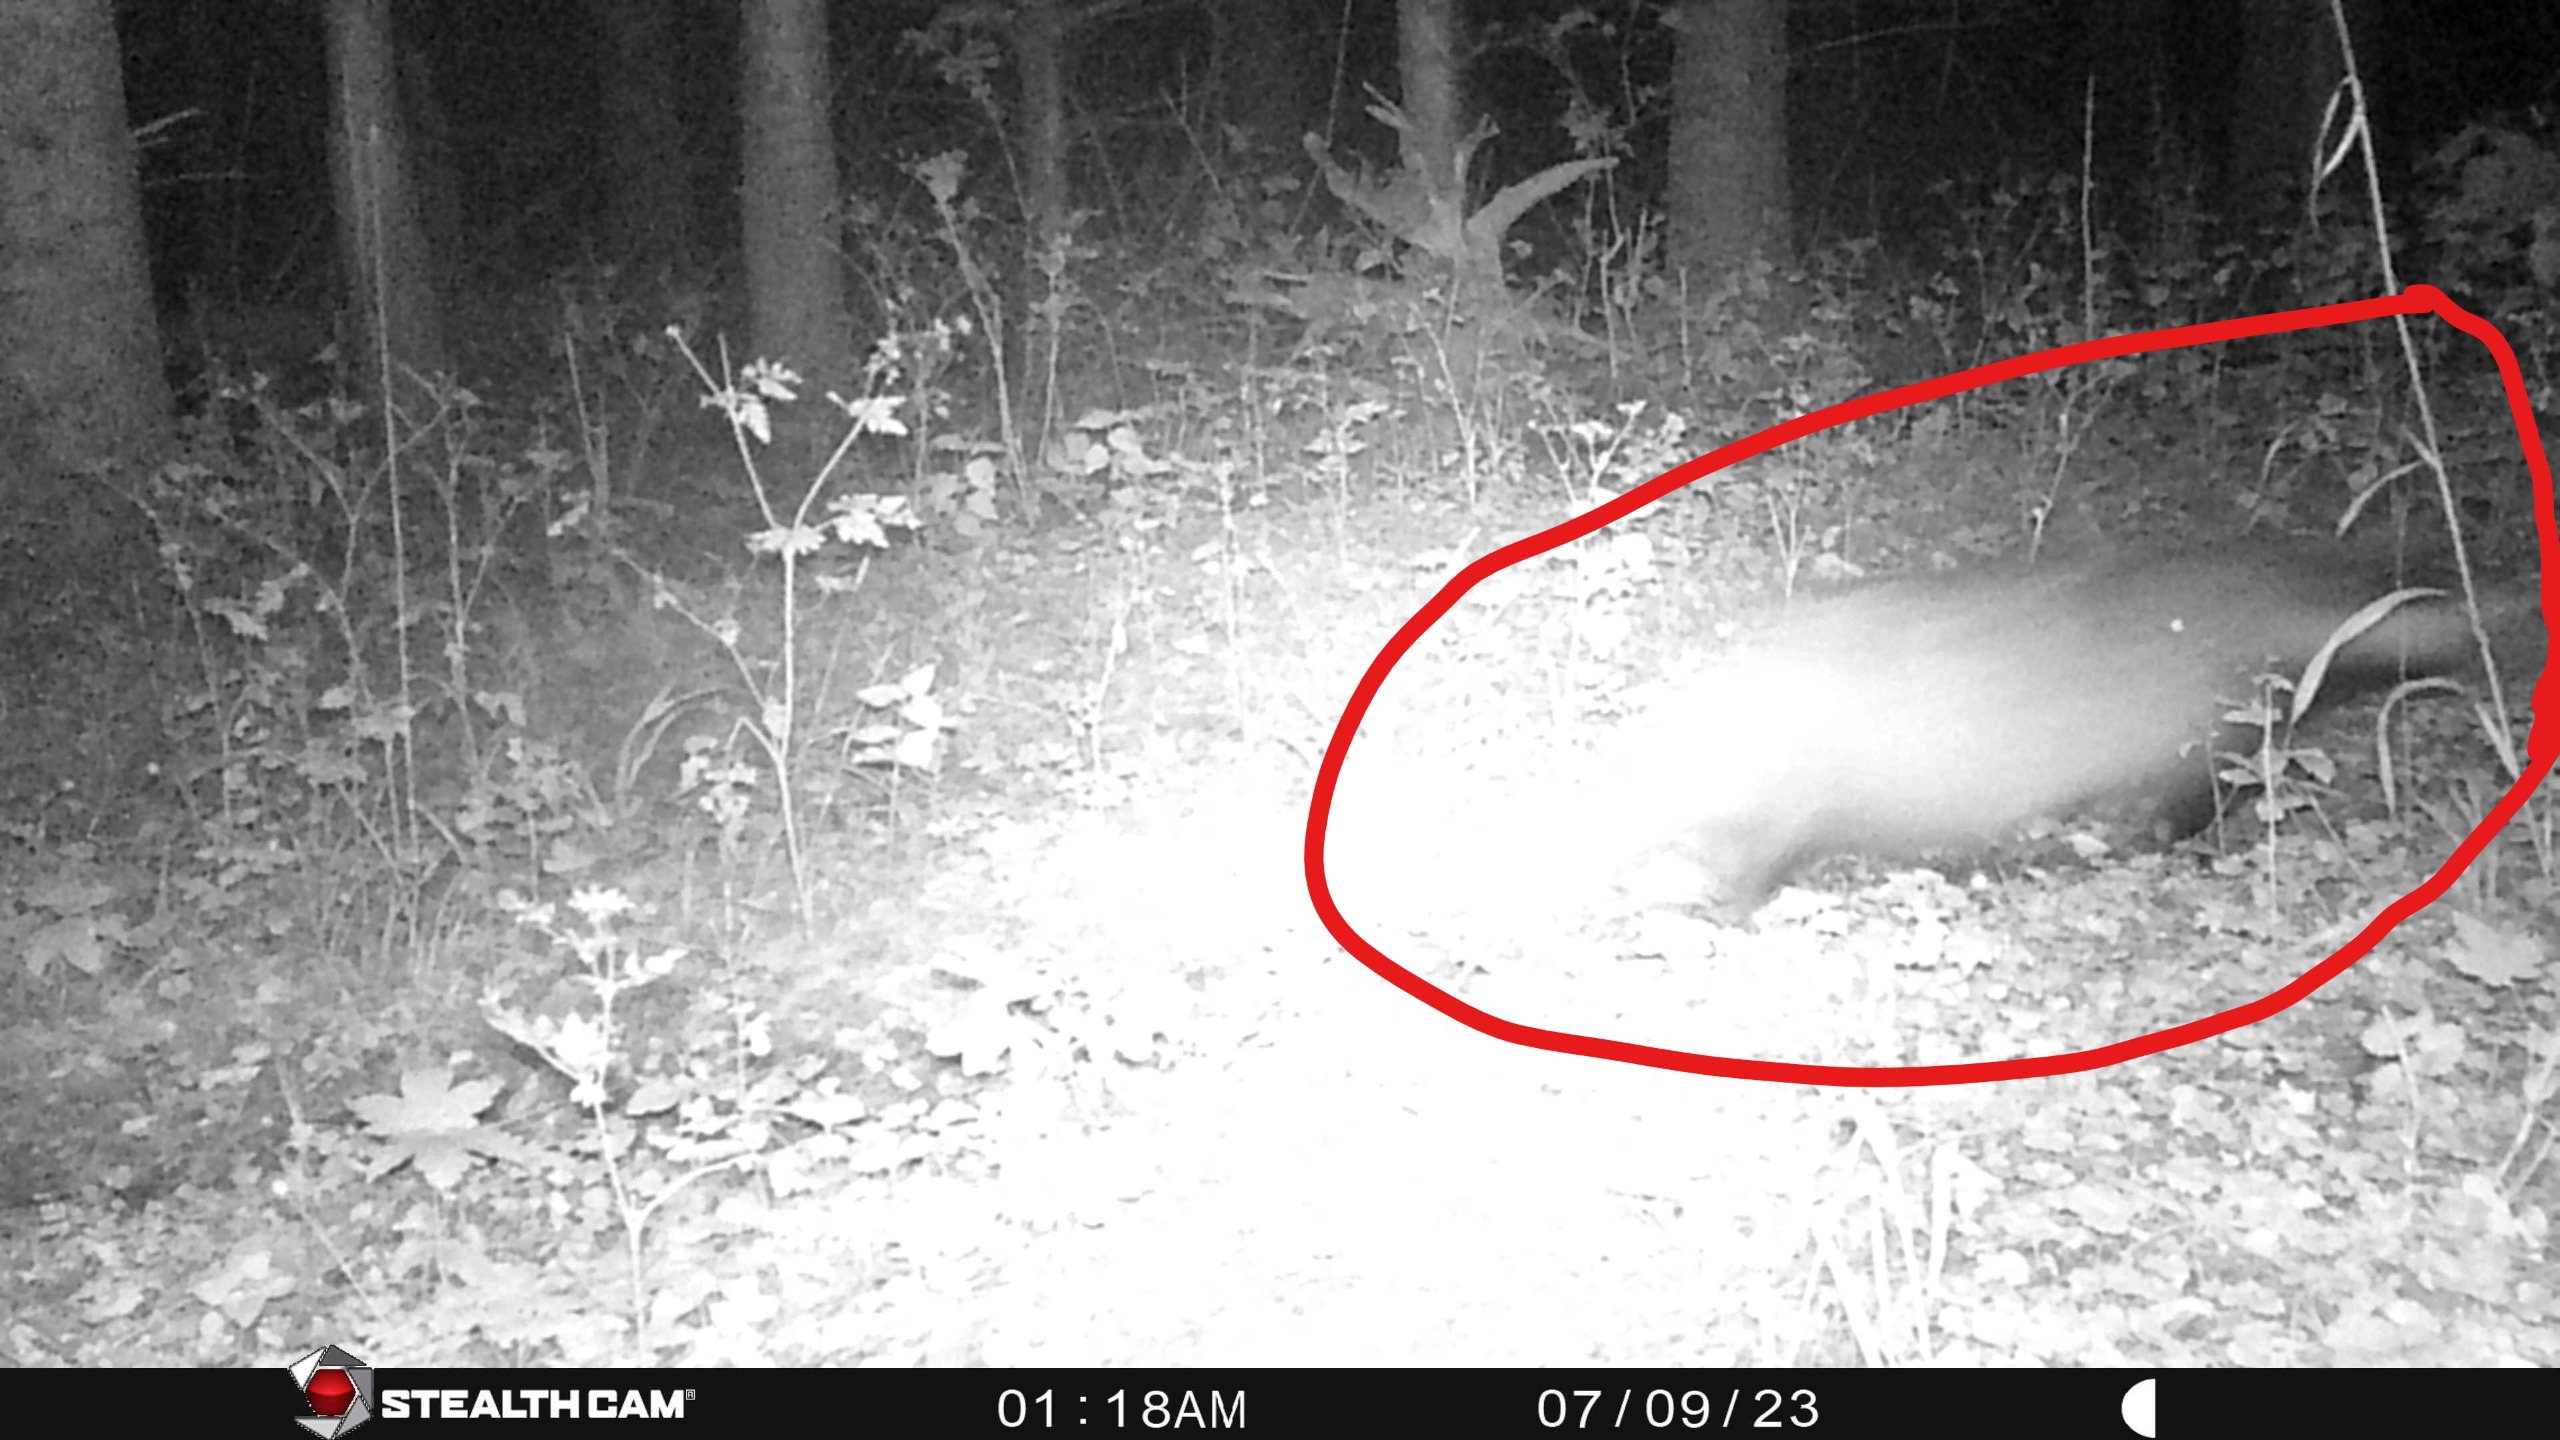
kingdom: Animalia
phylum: Chordata
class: Mammalia
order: Carnivora
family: Mustelidae
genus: Meles
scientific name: Meles meles
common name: Grævling
